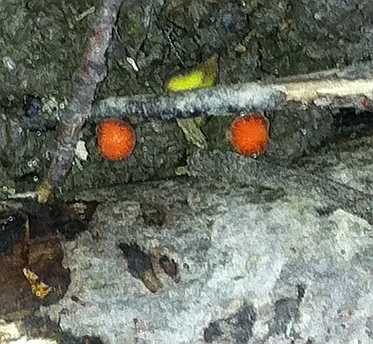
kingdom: Fungi
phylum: Ascomycota
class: Pezizomycetes
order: Pezizales
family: Pyronemataceae
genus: Scutellinia
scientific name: Scutellinia scutellata
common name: frynset skjoldbæger
